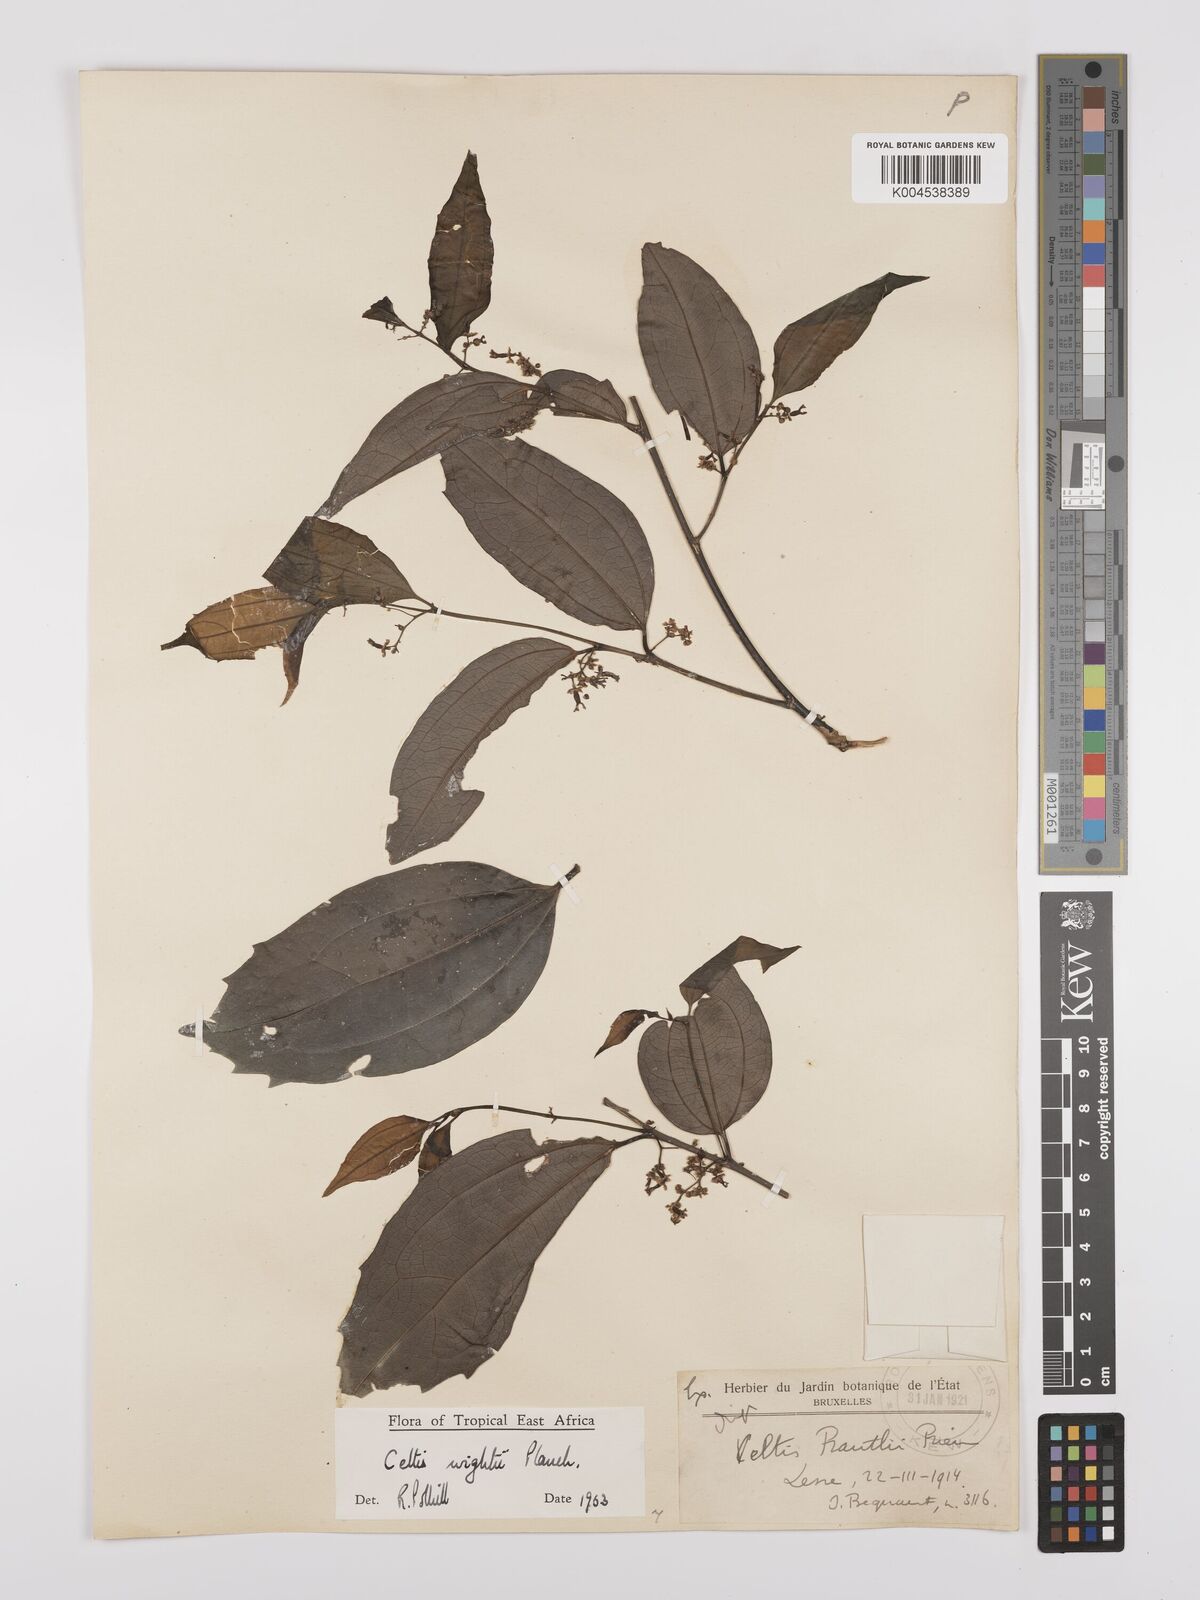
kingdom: Plantae
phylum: Tracheophyta
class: Magnoliopsida
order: Rosales
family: Cannabaceae
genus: Celtis
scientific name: Celtis philippensis
